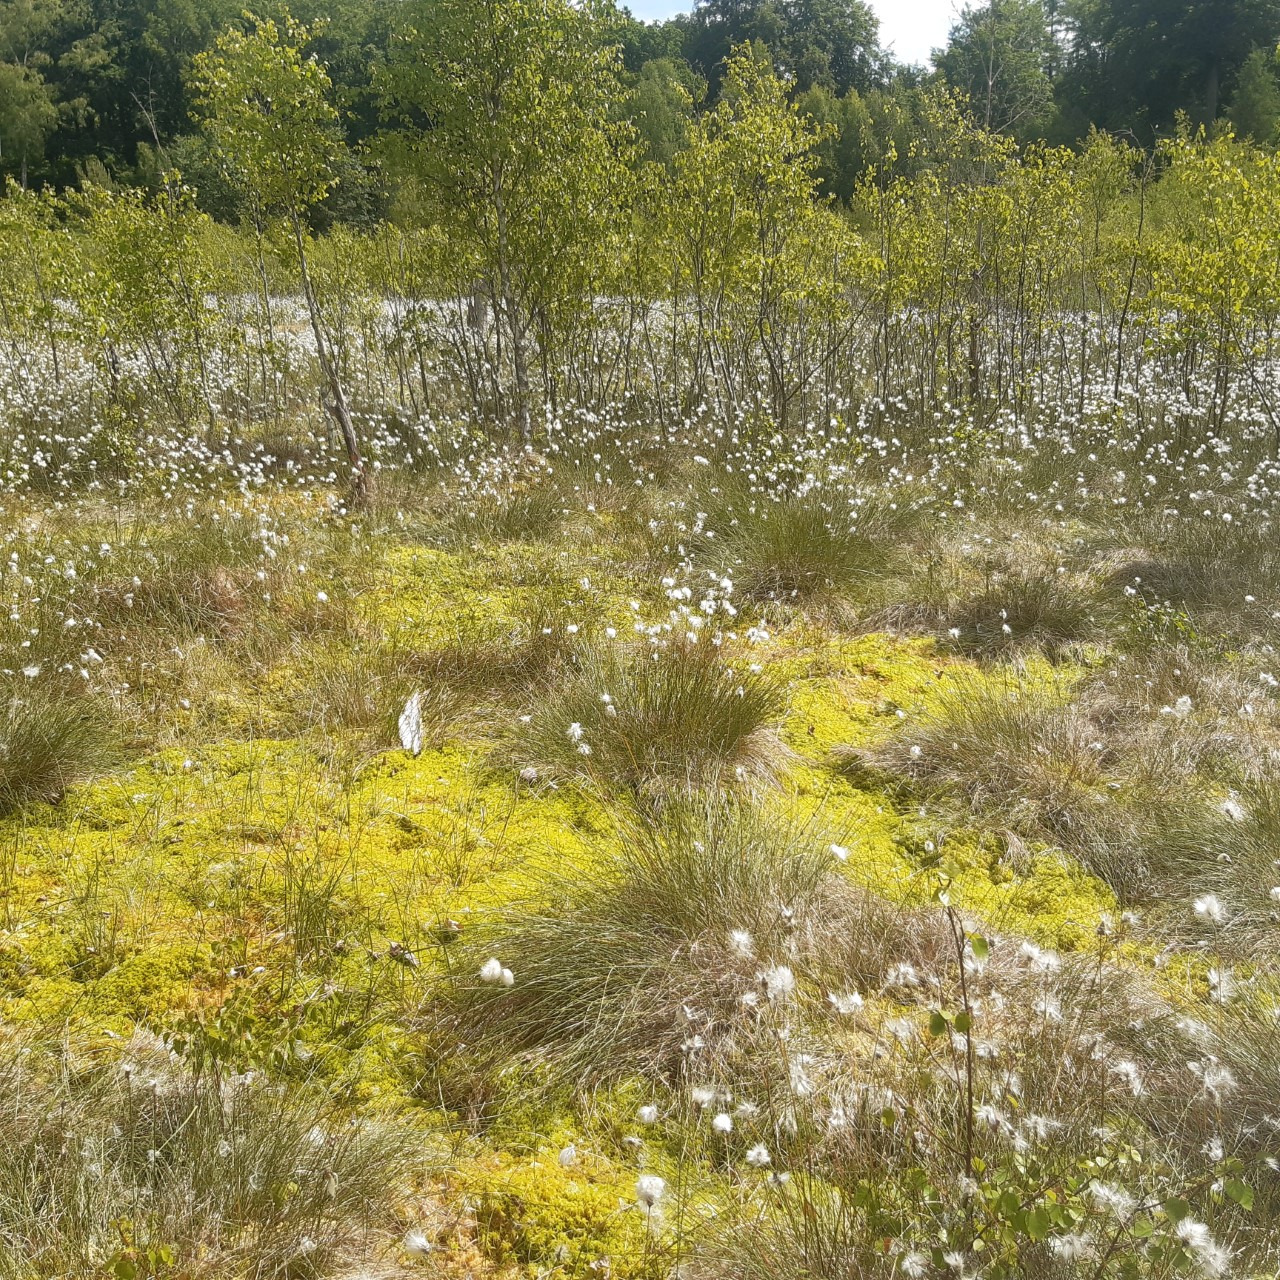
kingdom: Plantae
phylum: Tracheophyta
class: Liliopsida
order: Poales
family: Cyperaceae
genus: Eriophorum
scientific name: Eriophorum vaginatum
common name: Tue-kæruld
